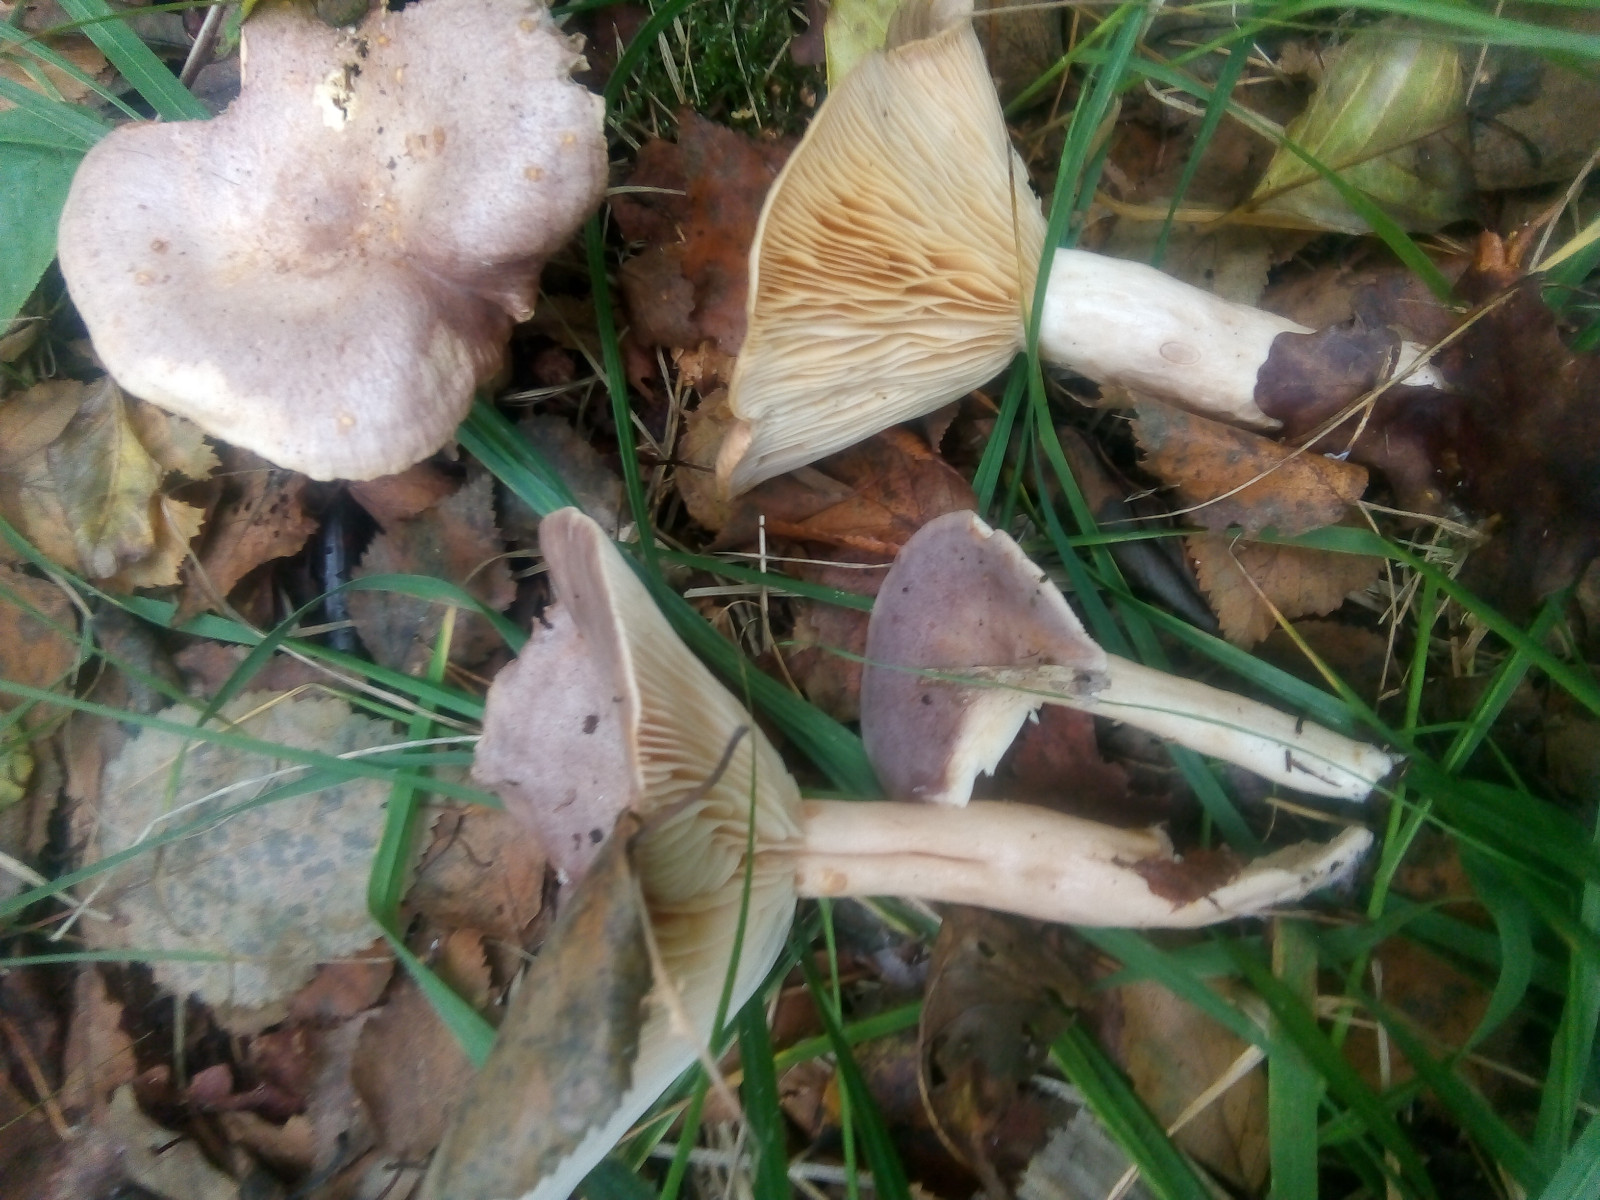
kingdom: Fungi
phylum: Basidiomycota
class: Agaricomycetes
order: Russulales
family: Russulaceae
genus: Lactarius
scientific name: Lactarius trivialis
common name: nordisk mælkehat
